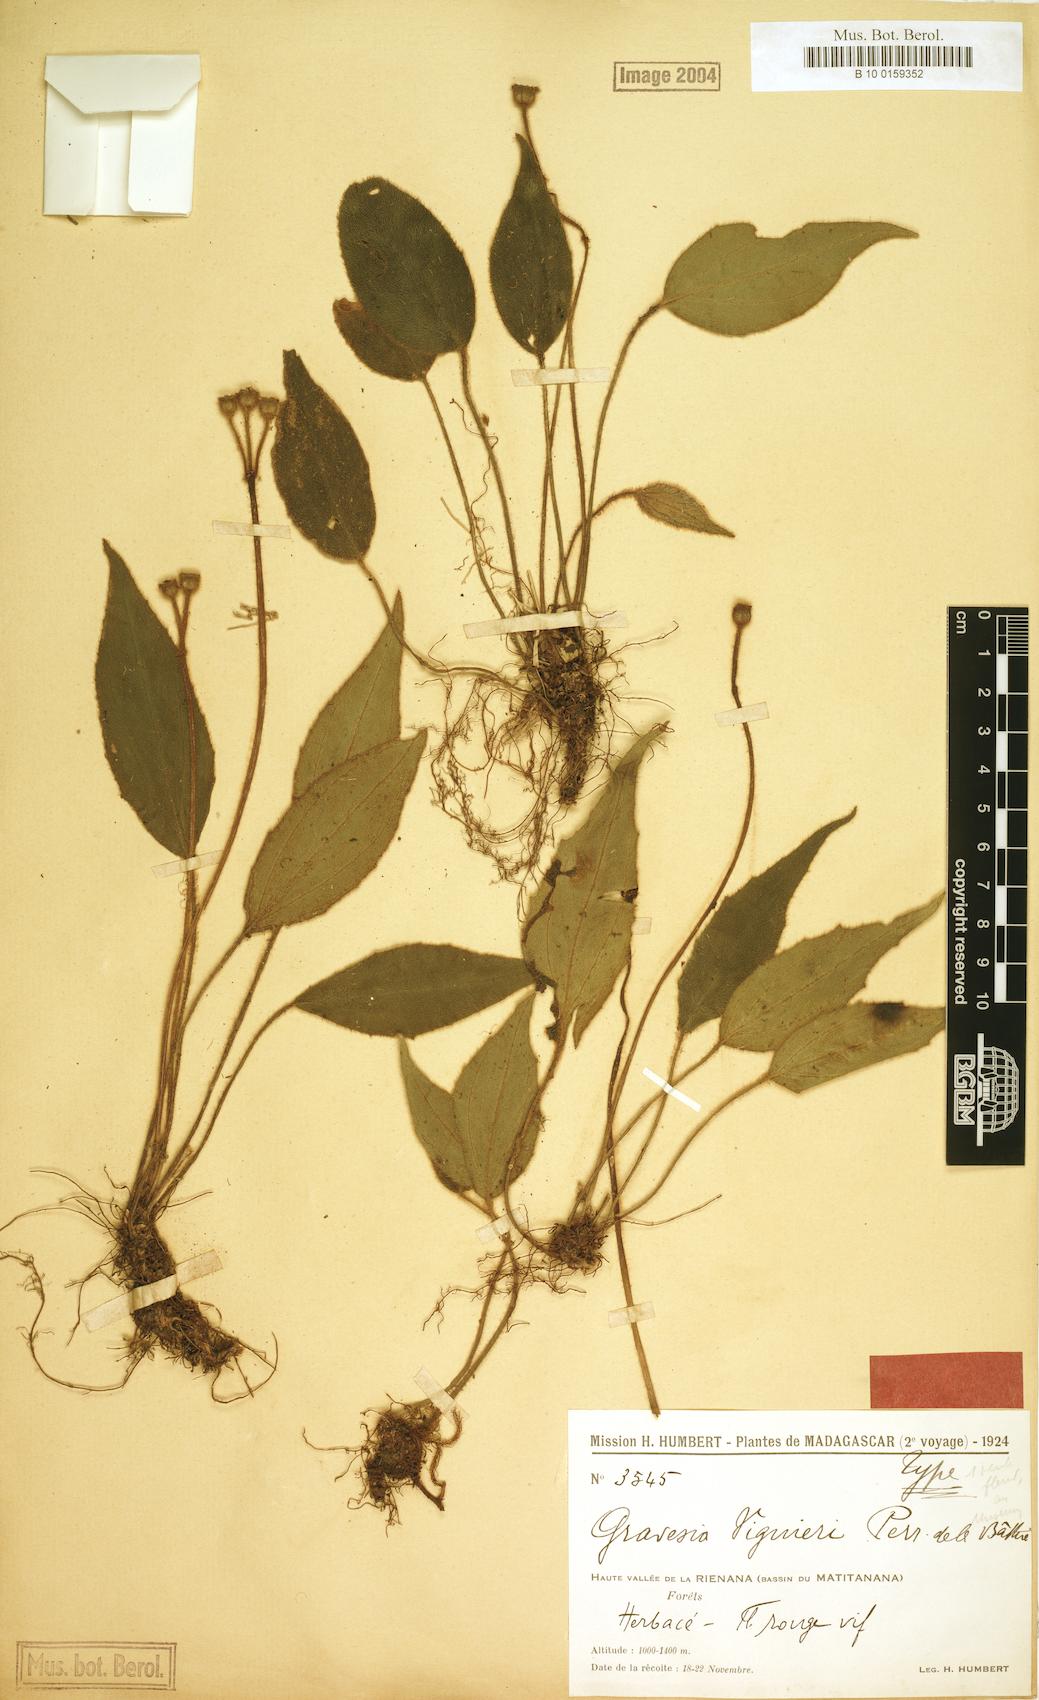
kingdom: Plantae
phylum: Tracheophyta
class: Magnoliopsida
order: Myrtales
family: Melastomataceae
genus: Gravesia
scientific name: Gravesia viguieri
